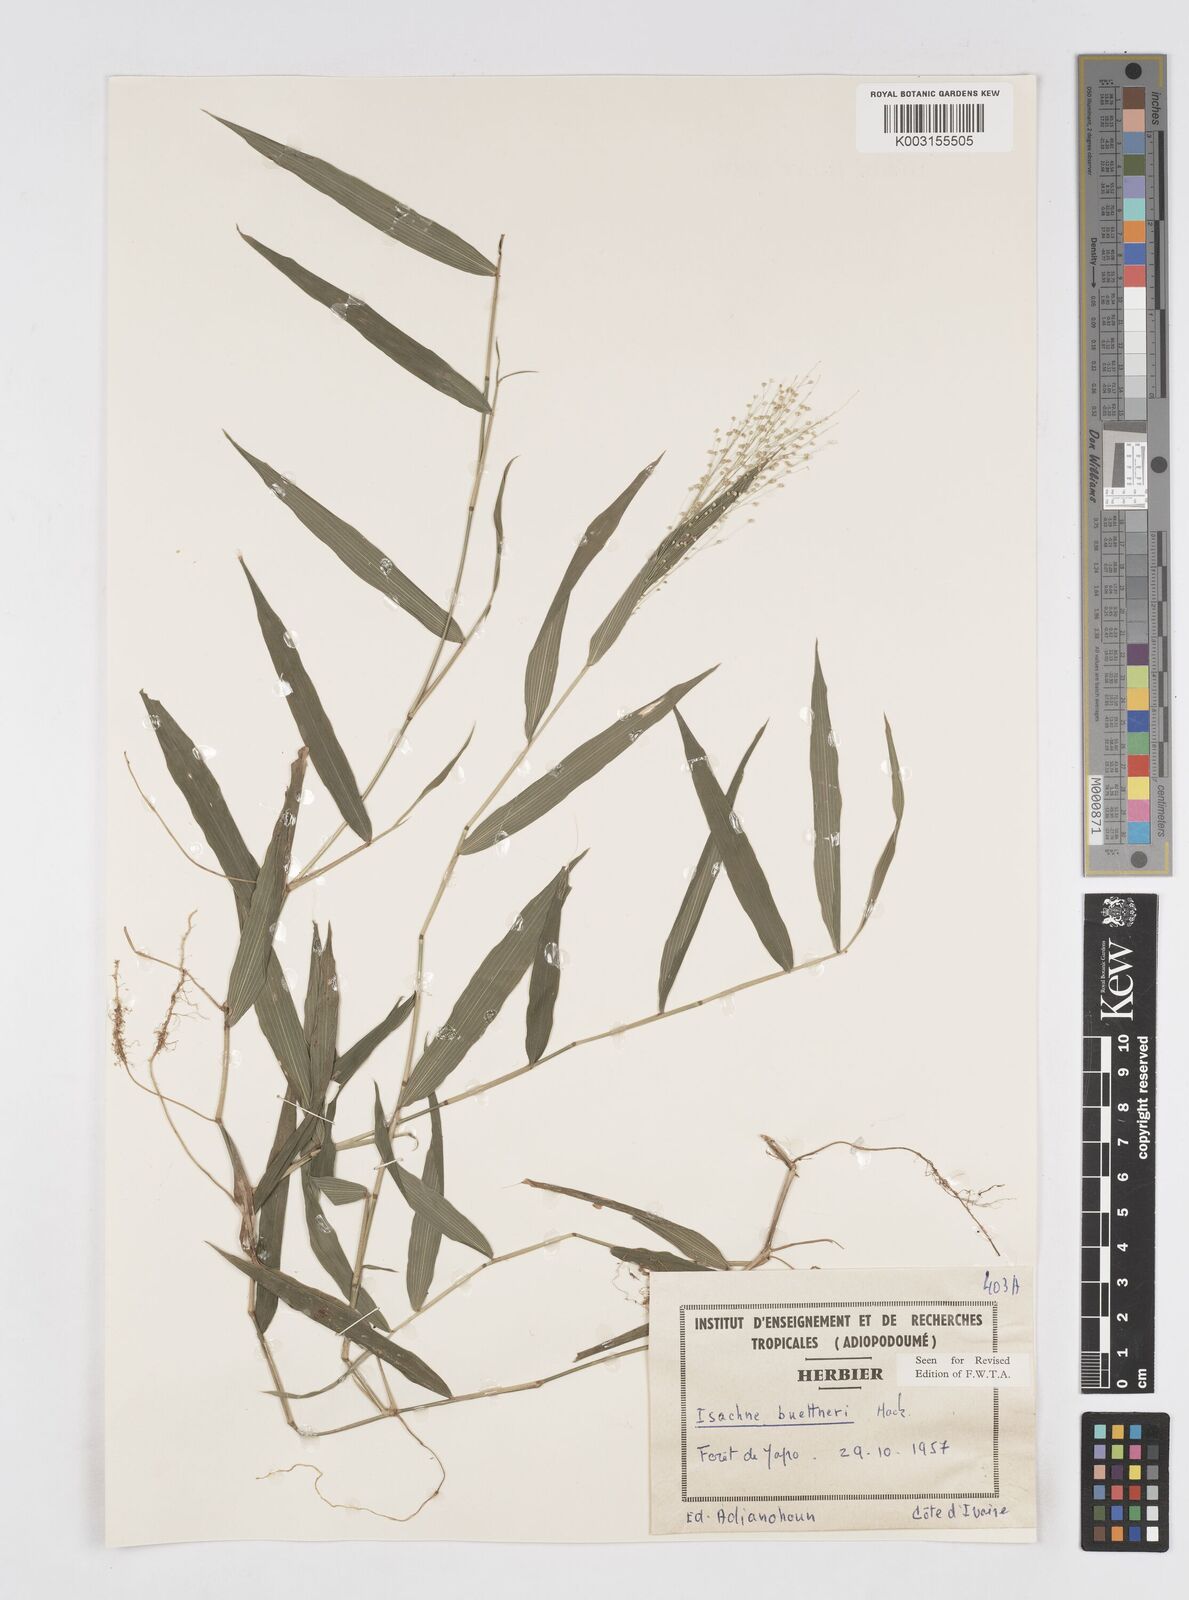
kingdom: Plantae
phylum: Tracheophyta
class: Liliopsida
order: Poales
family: Poaceae
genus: Isachne
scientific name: Isachne albens
